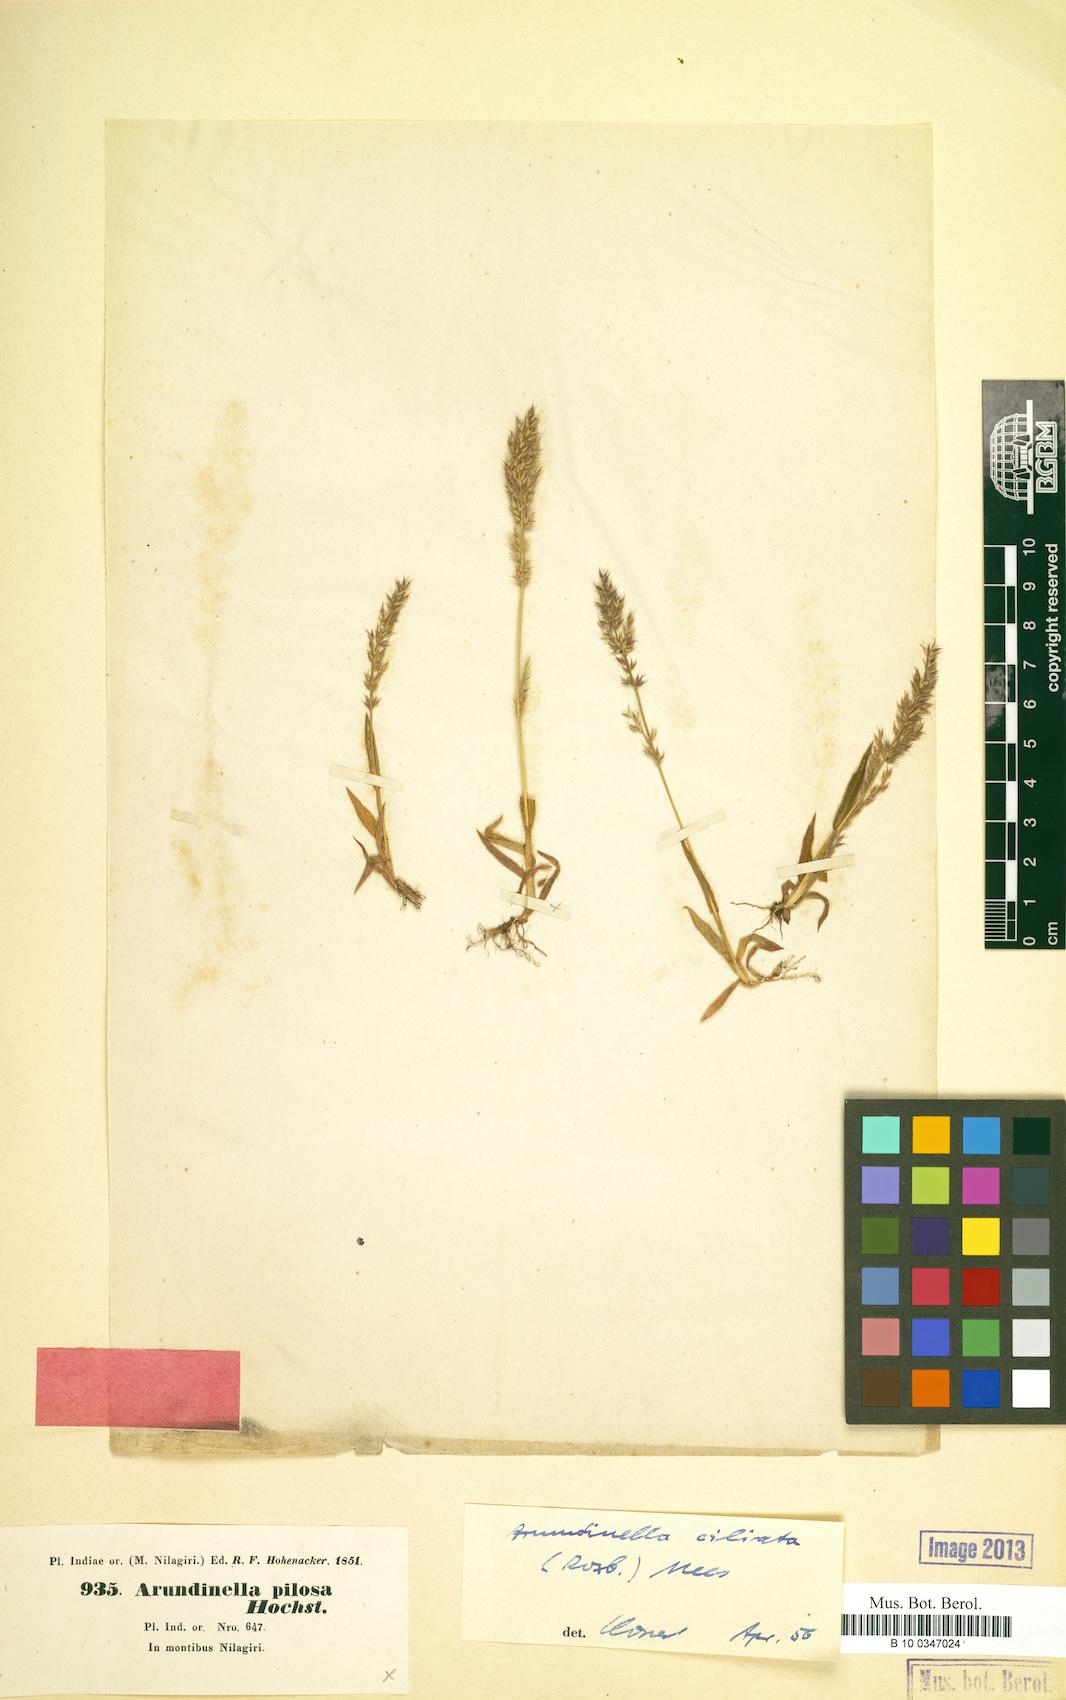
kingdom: Plantae
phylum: Tracheophyta
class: Liliopsida
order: Poales
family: Poaceae
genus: Arundinella
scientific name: Arundinella ciliata
